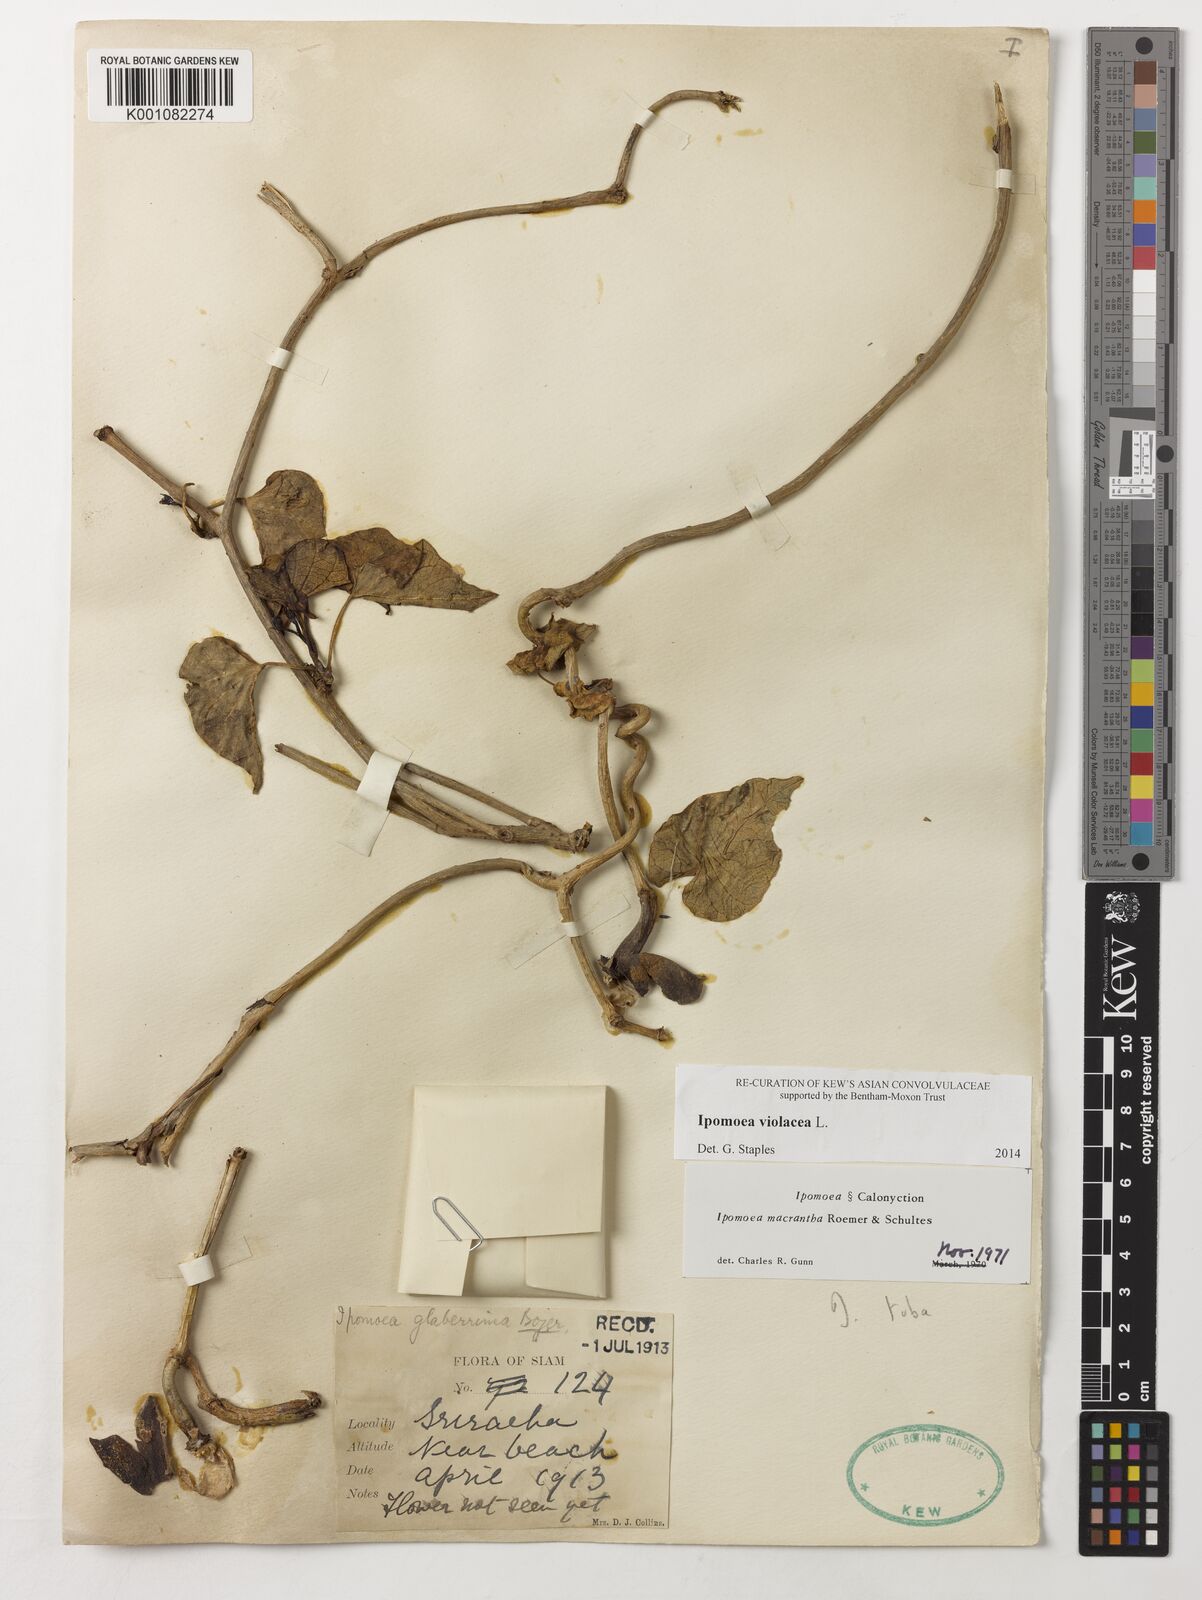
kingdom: Plantae
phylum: Tracheophyta
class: Magnoliopsida
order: Solanales
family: Convolvulaceae
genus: Ipomoea
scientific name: Ipomoea violacea
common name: Beach moonflower
